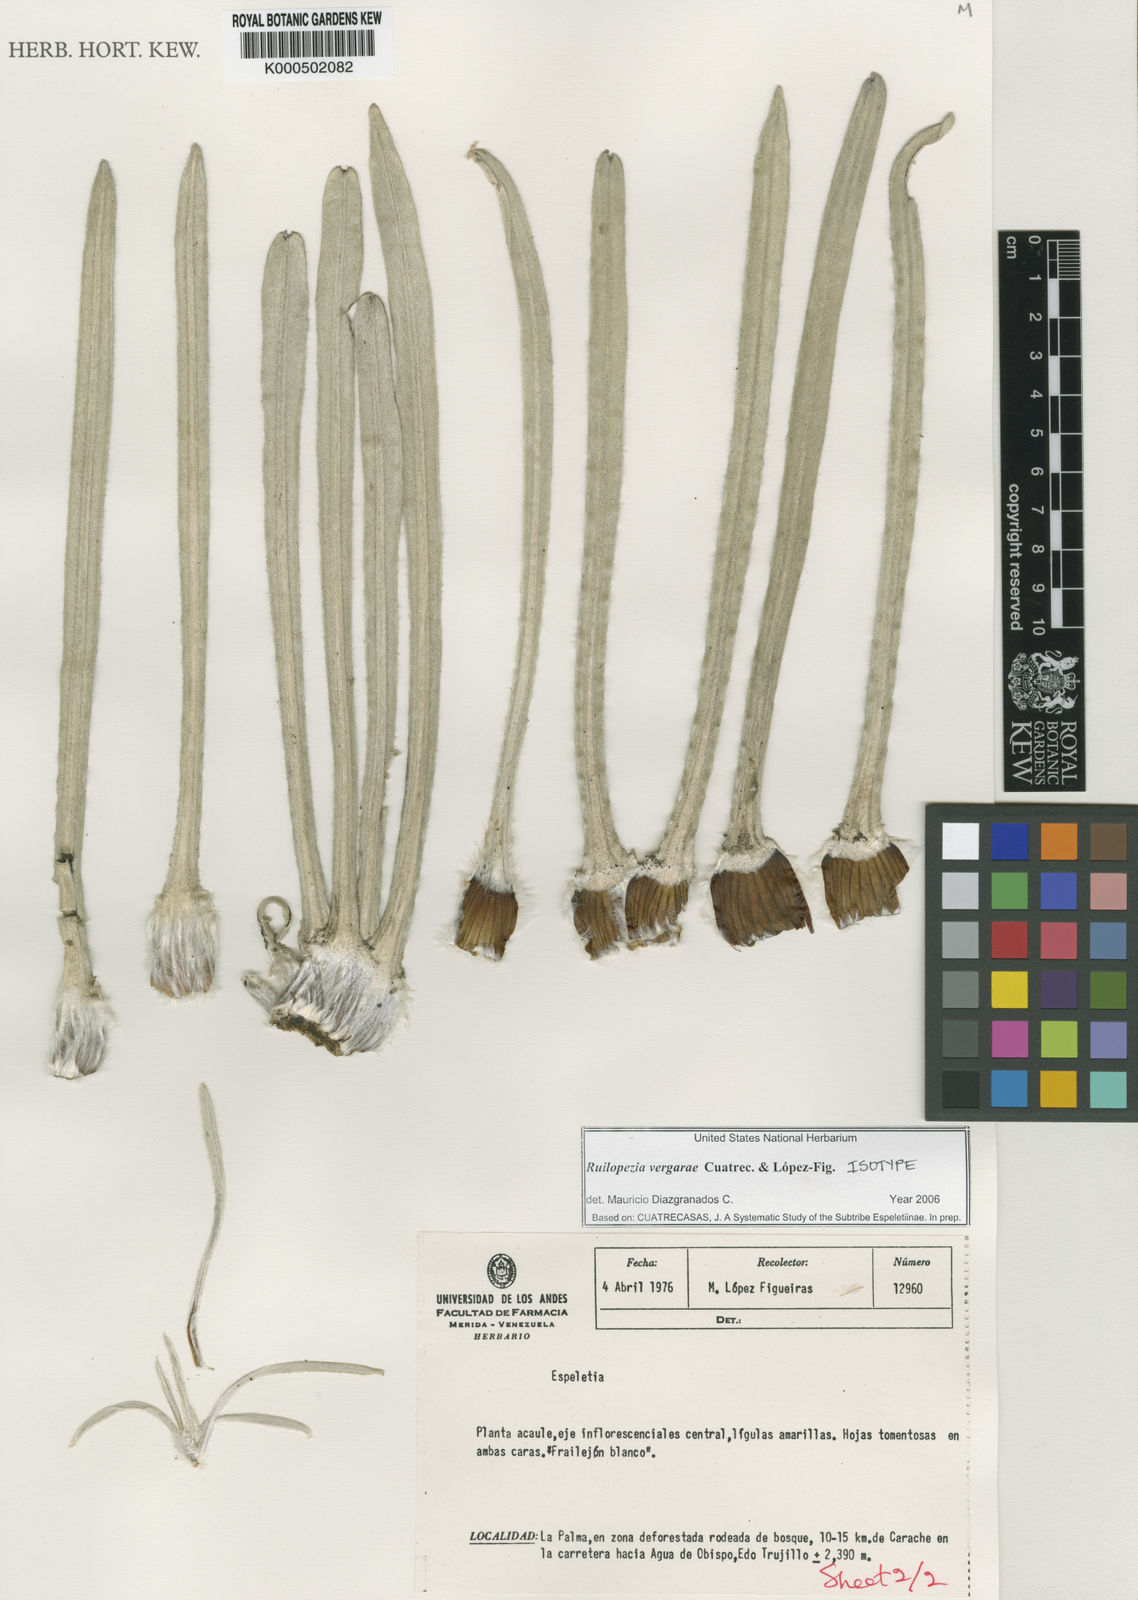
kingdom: Plantae
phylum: Tracheophyta
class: Magnoliopsida
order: Asterales
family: Asteraceae
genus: Espeletia
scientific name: Espeletia
